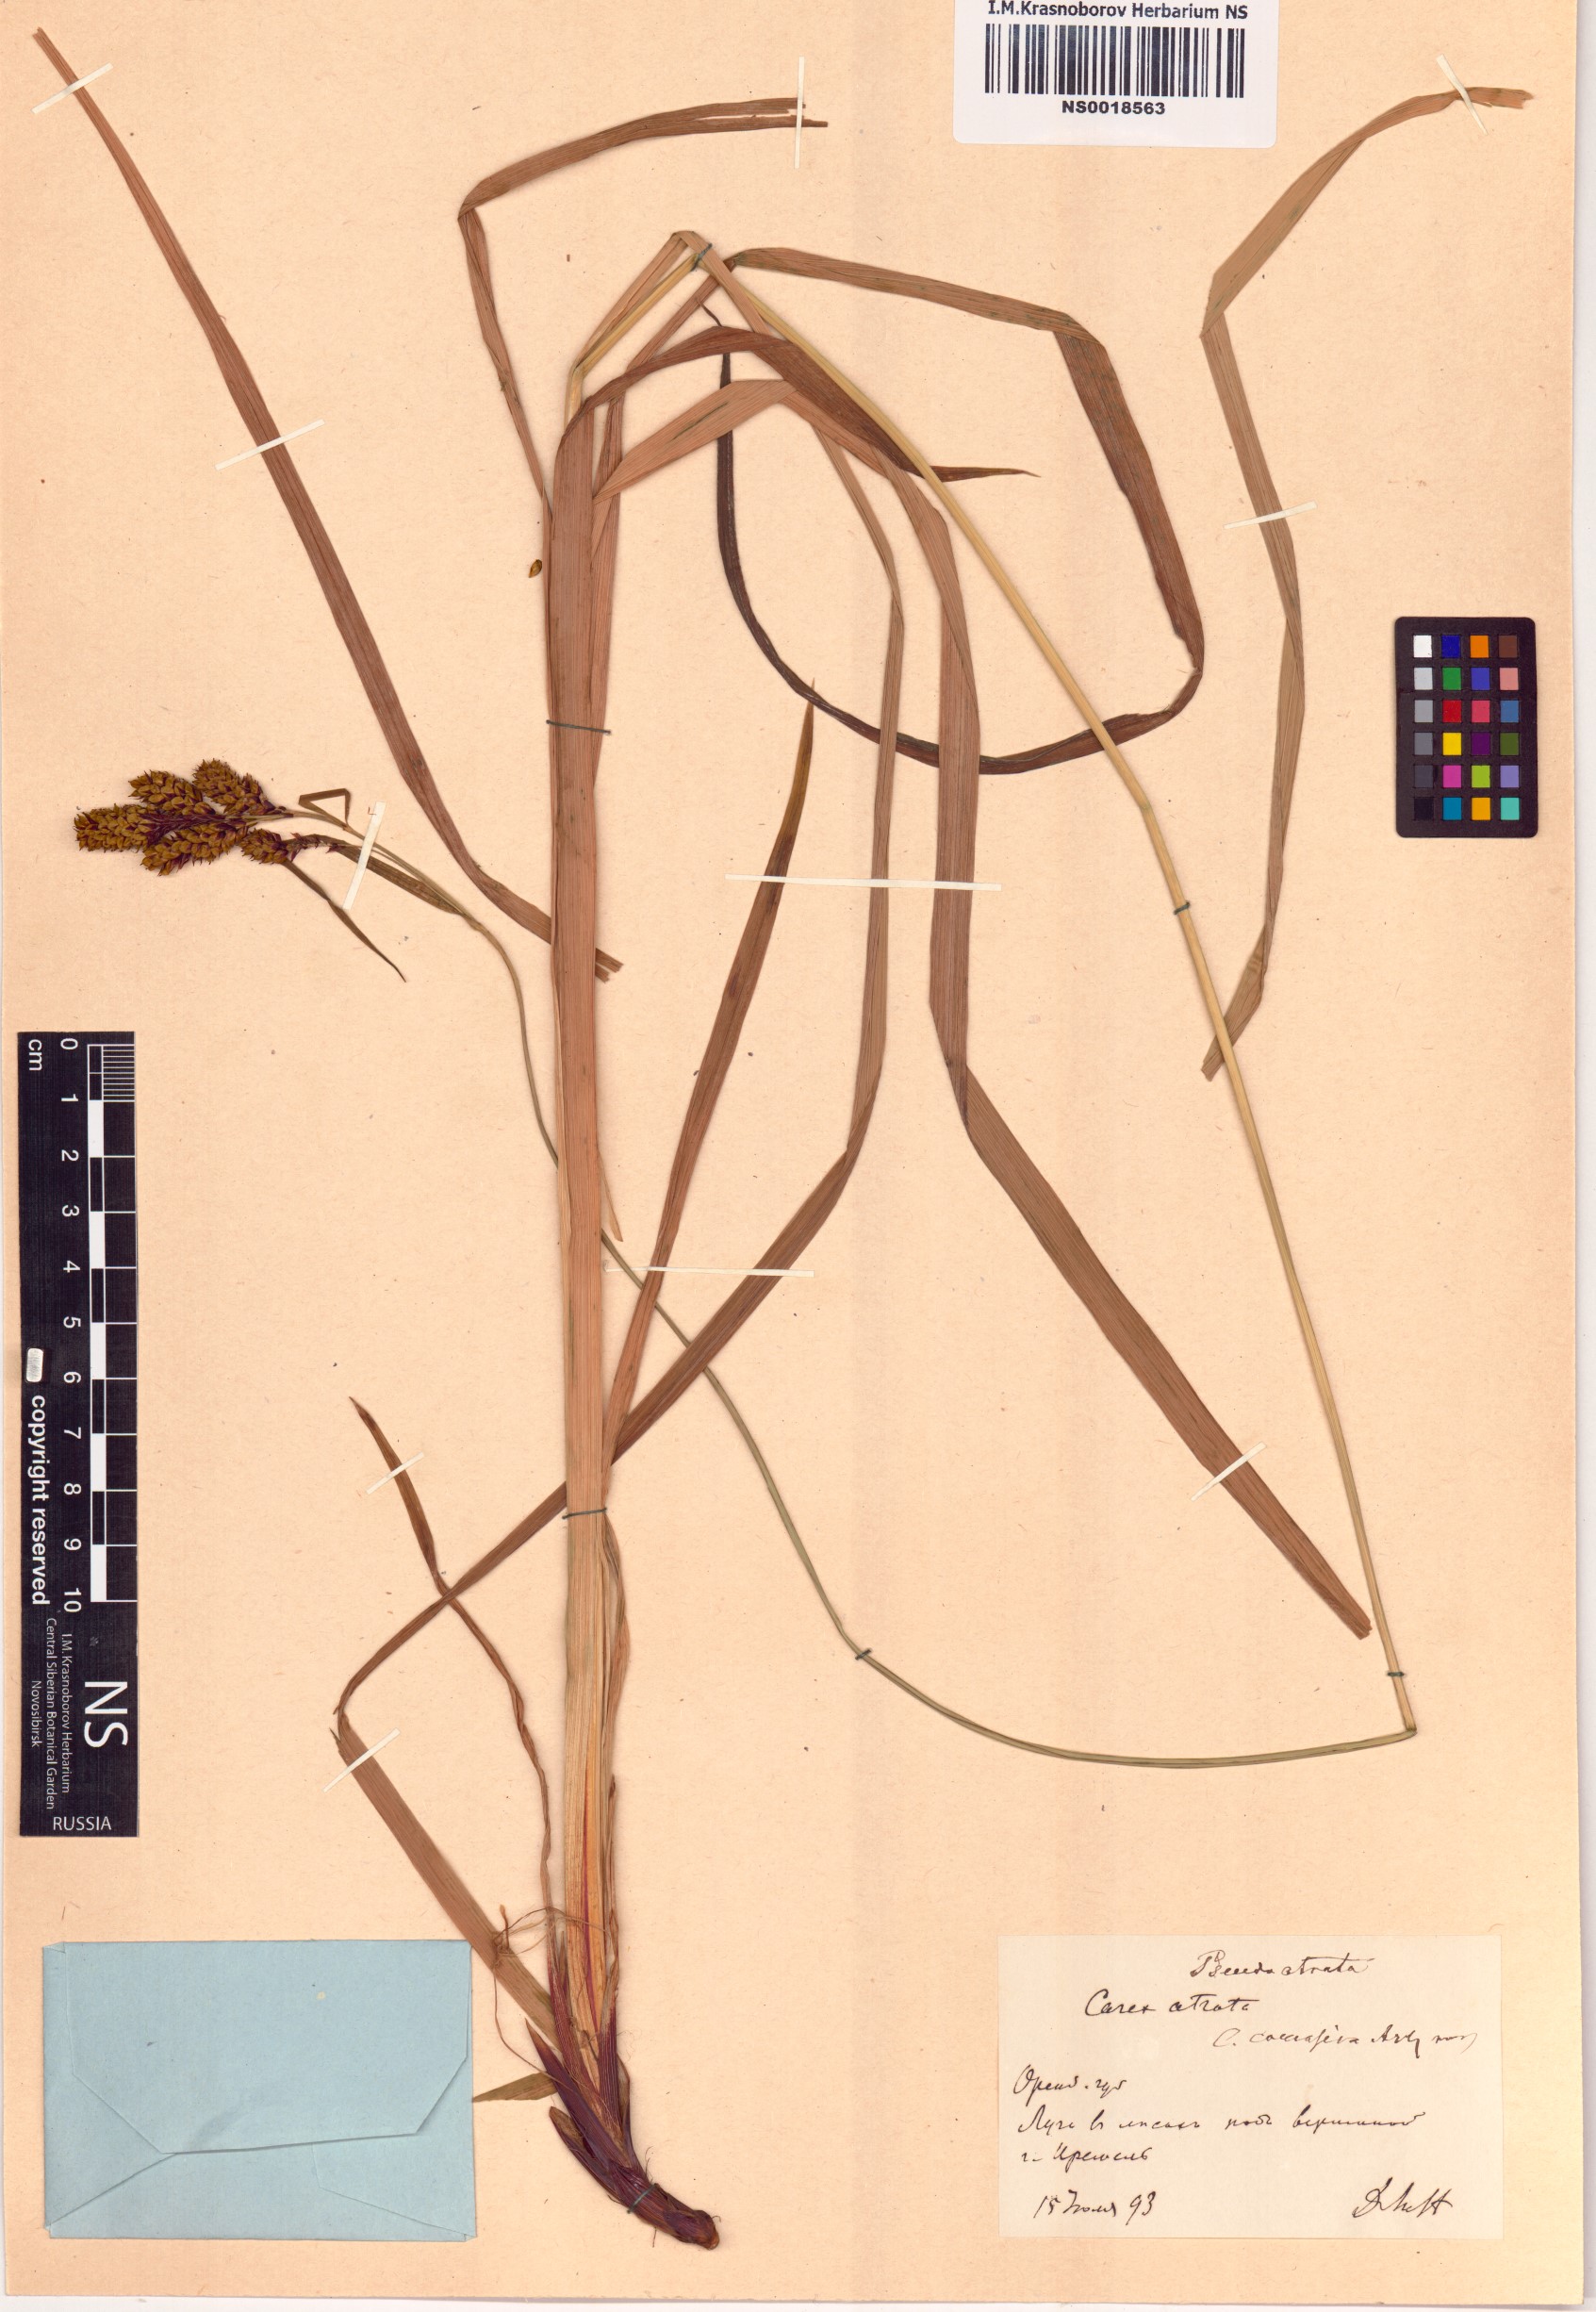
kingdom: Plantae
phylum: Tracheophyta
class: Liliopsida
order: Poales
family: Cyperaceae
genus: Carex
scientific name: Carex atrata
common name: Black alpine sedge
